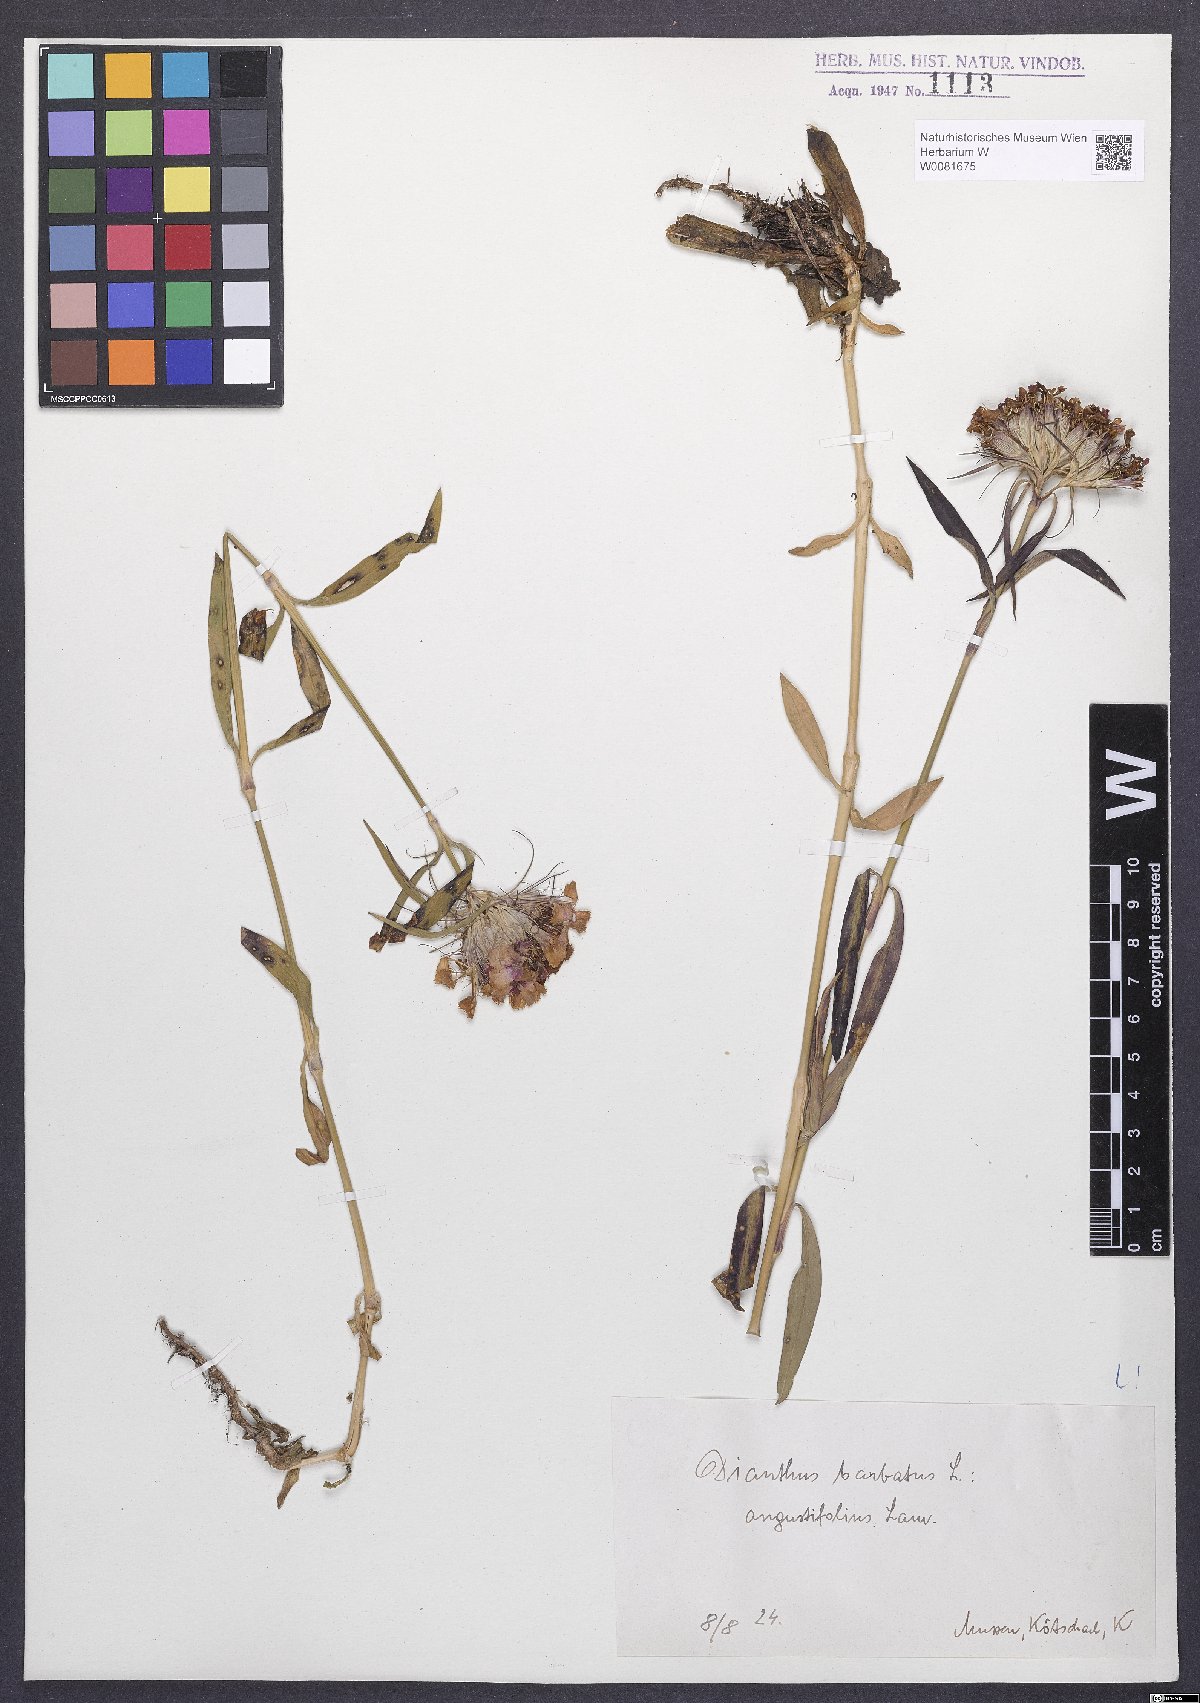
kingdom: Plantae
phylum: Tracheophyta
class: Magnoliopsida
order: Caryophyllales
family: Caryophyllaceae
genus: Dianthus
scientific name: Dianthus barbatus
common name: Sweet-william
